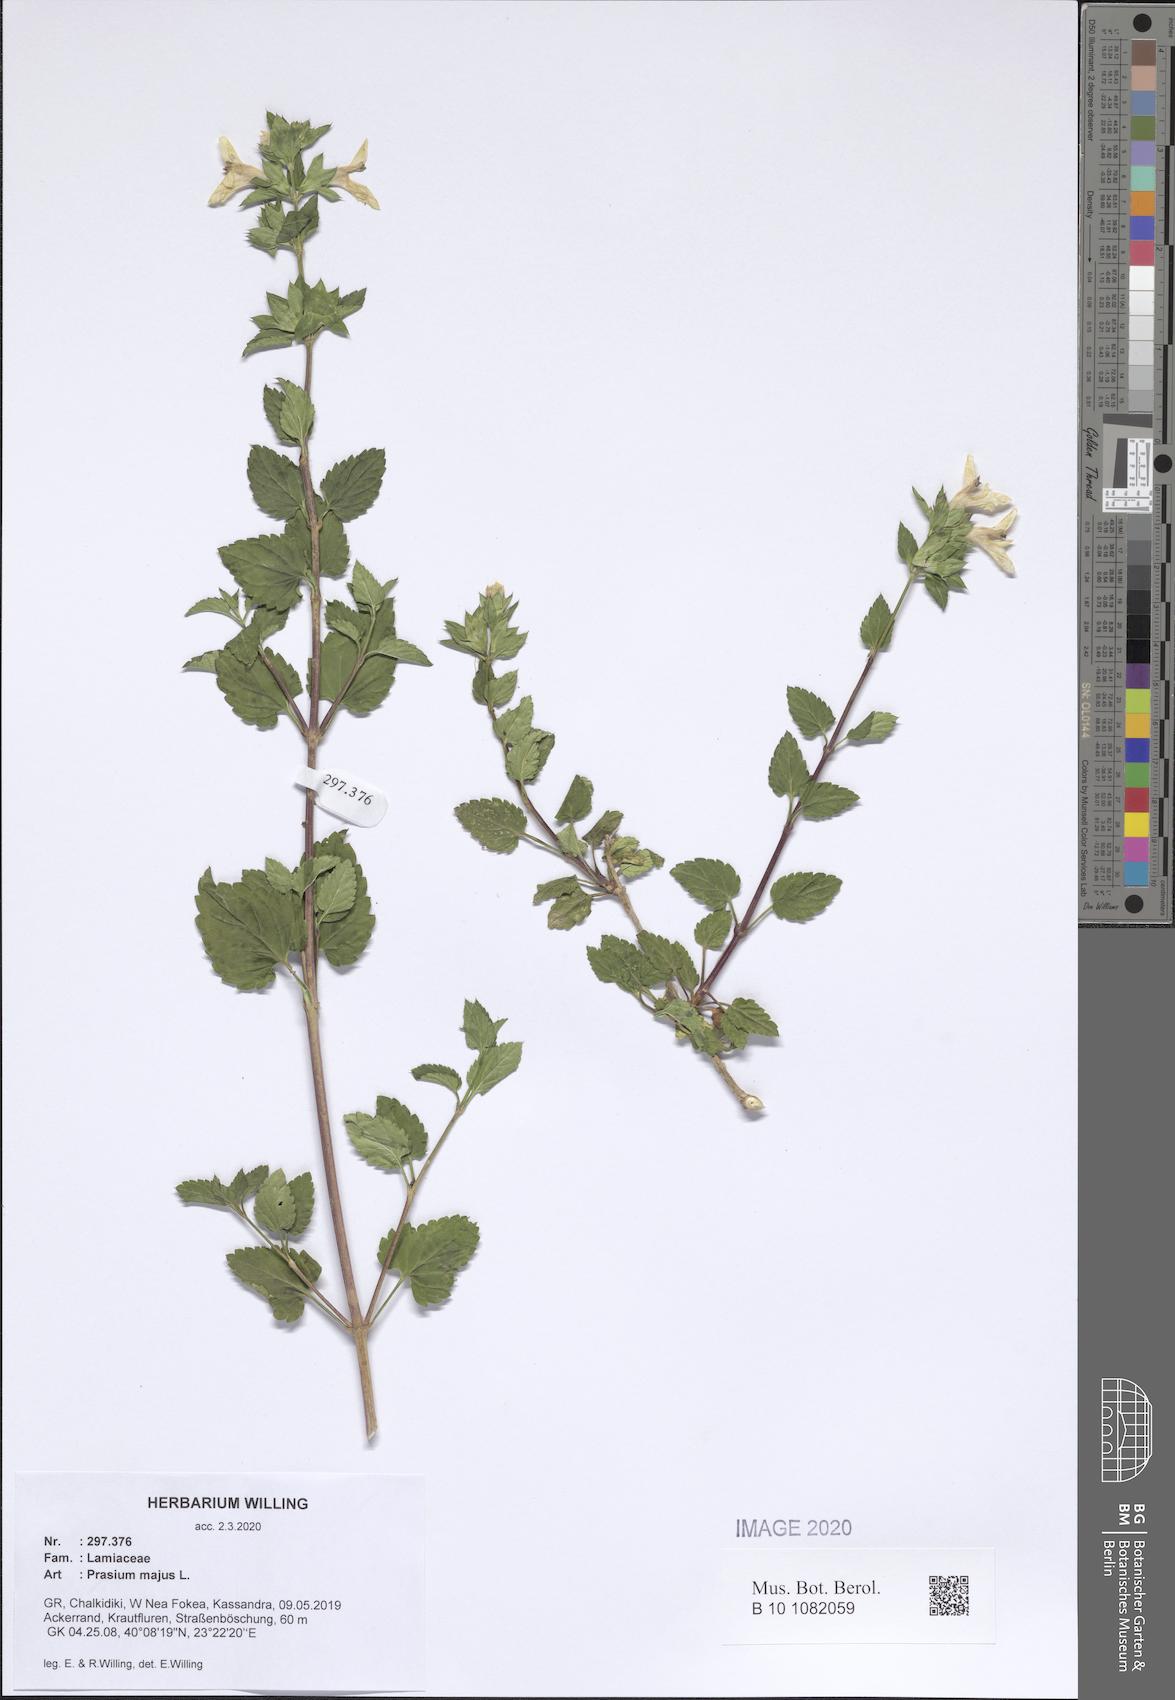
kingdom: Plantae
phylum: Tracheophyta
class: Magnoliopsida
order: Lamiales
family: Lamiaceae
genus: Prasium
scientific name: Prasium majus
